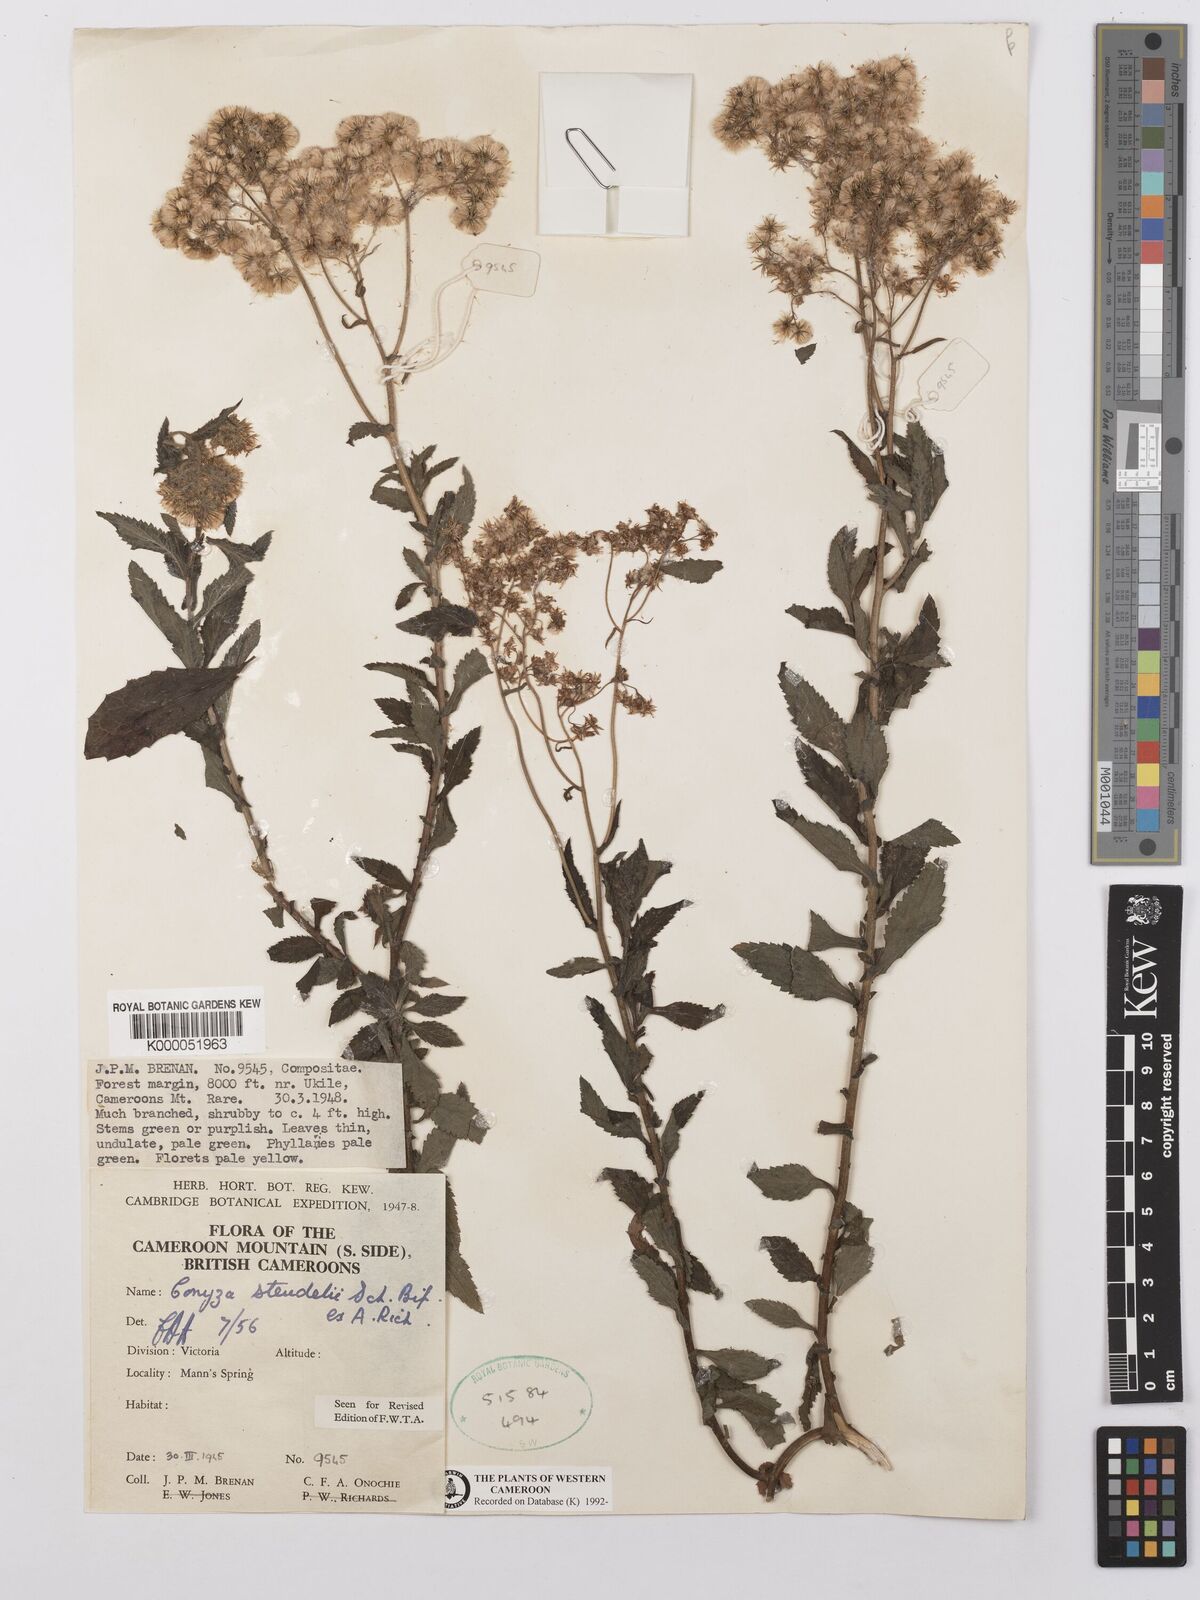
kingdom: Plantae
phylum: Tracheophyta
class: Magnoliopsida
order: Asterales
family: Asteraceae
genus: Conyza
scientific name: Conyza steudelii
